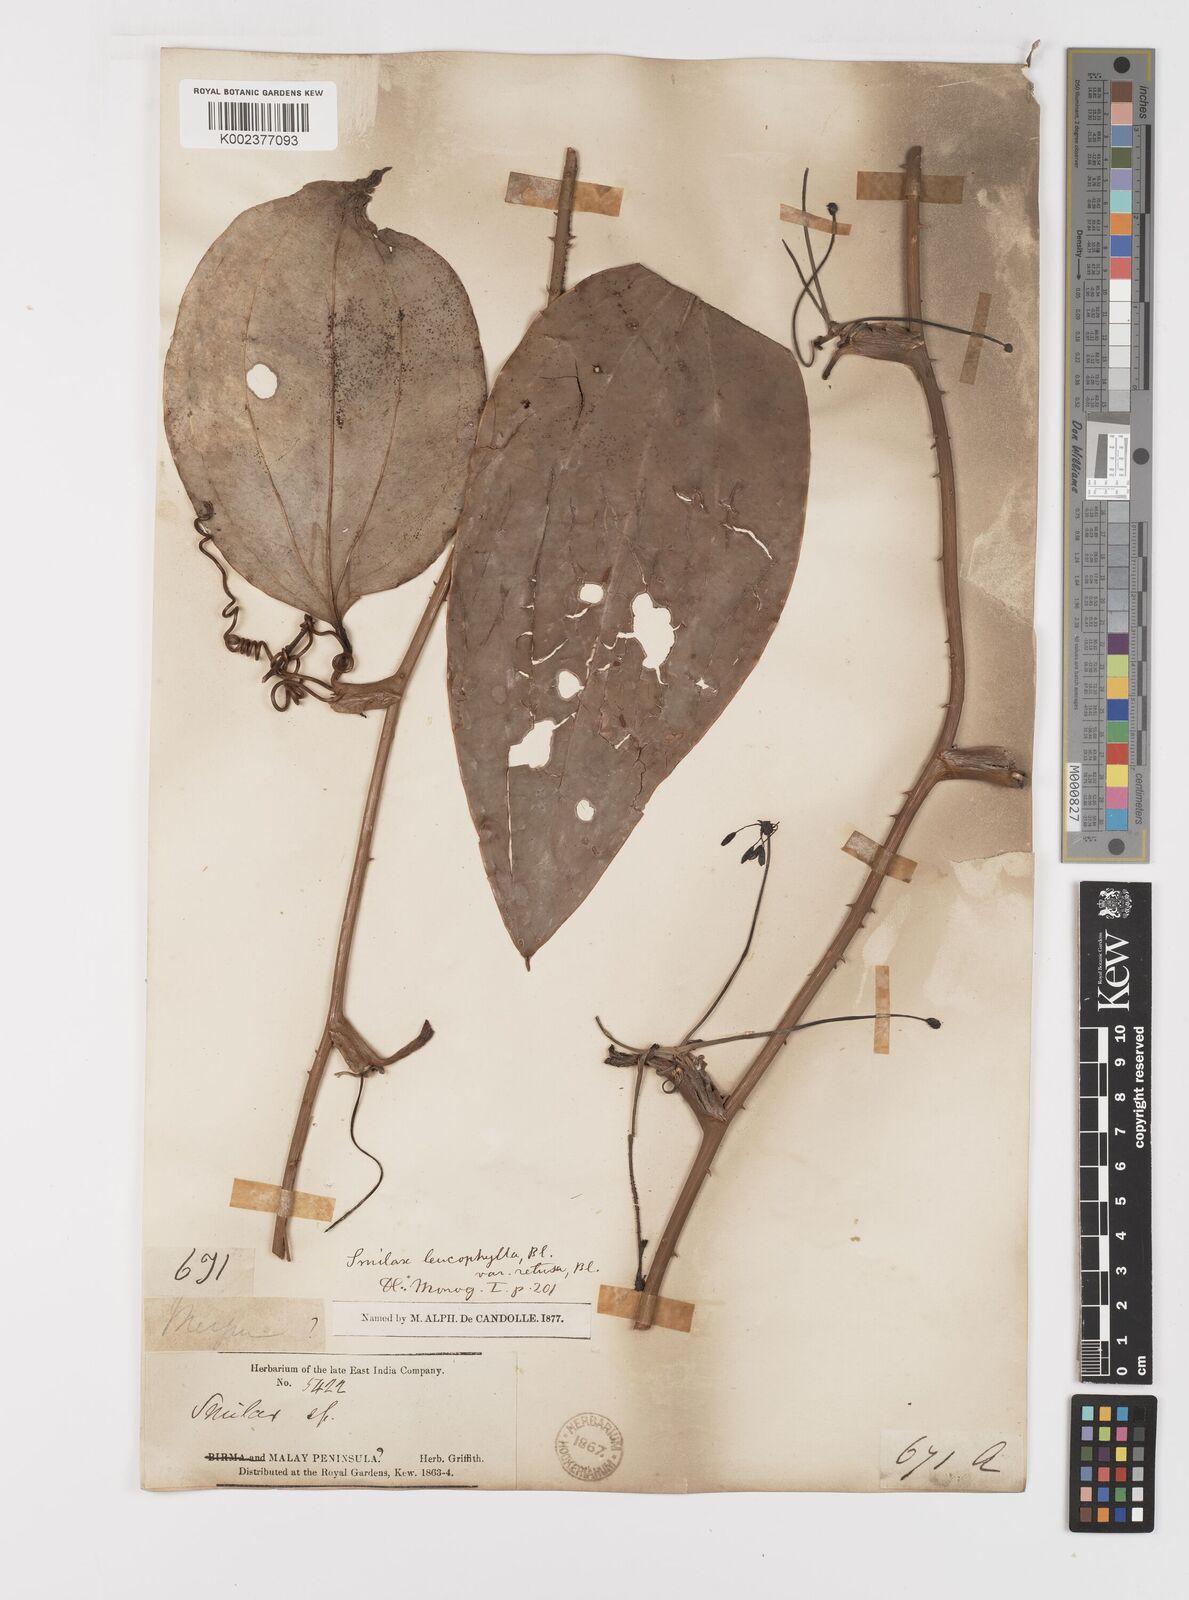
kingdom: Plantae
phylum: Tracheophyta
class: Liliopsida
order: Liliales
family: Smilacaceae
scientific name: Smilacaceae
